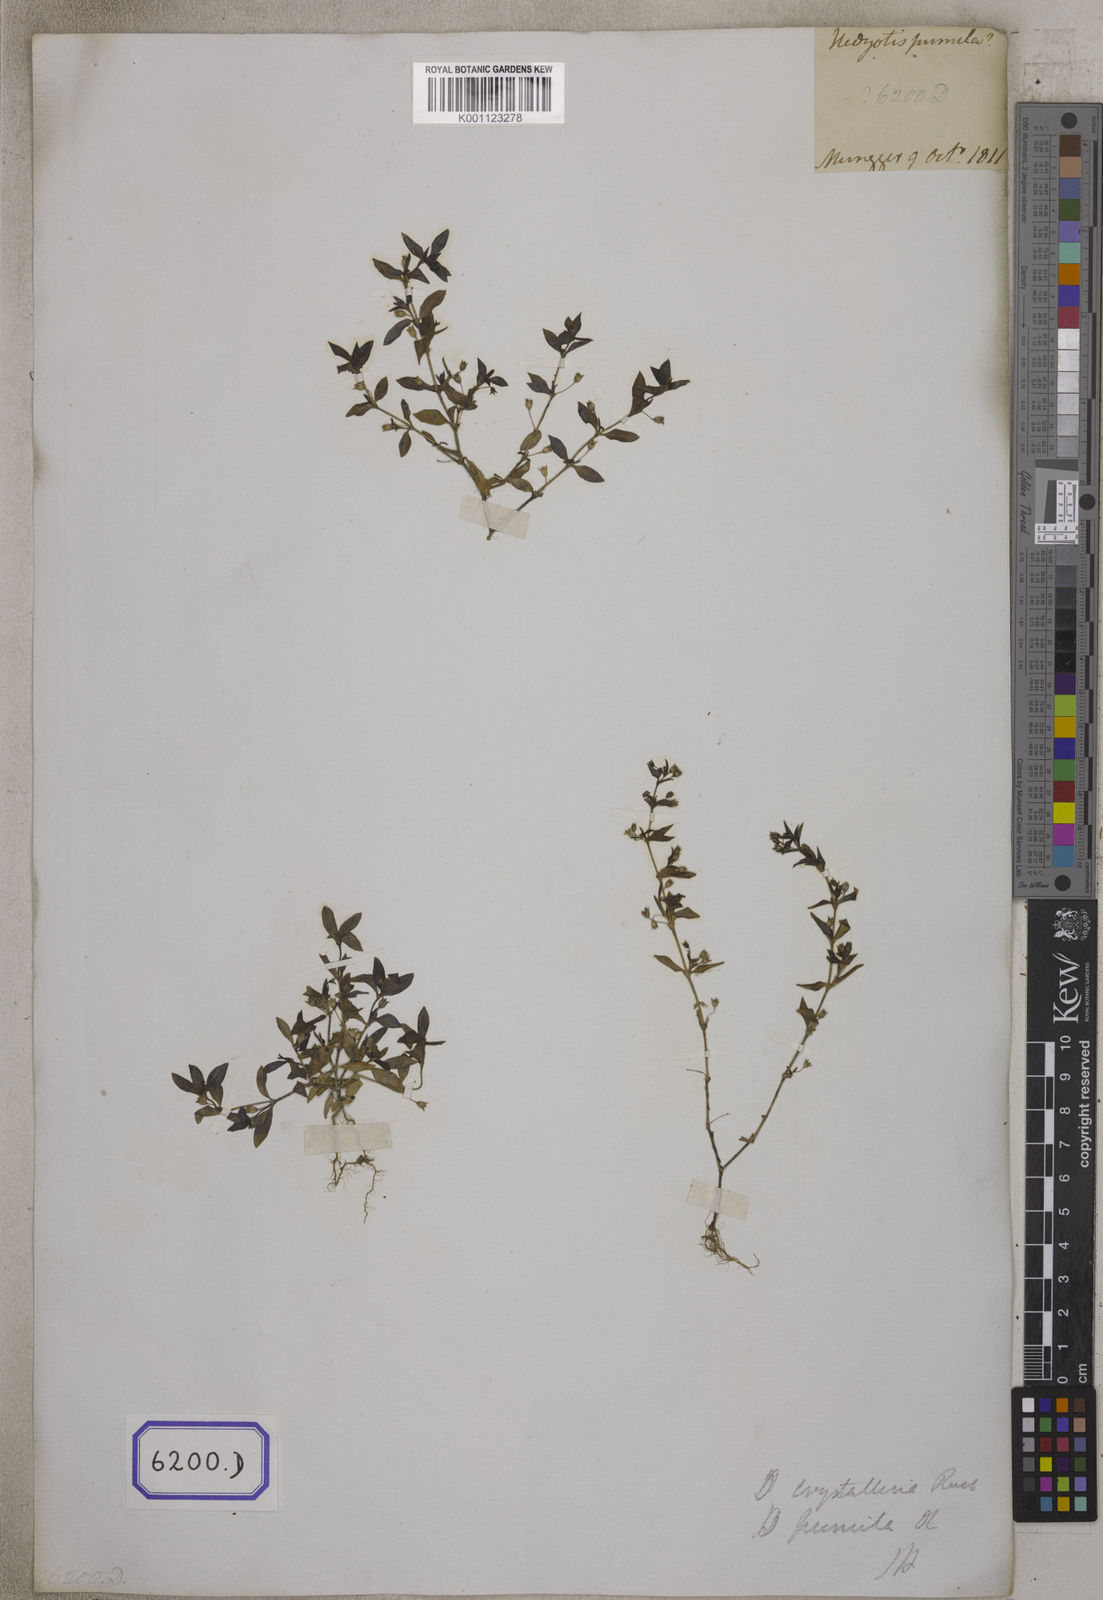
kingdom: Plantae
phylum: Tracheophyta
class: Magnoliopsida
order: Gentianales
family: Rubiaceae
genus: Oldenlandia
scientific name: Oldenlandia pumila
